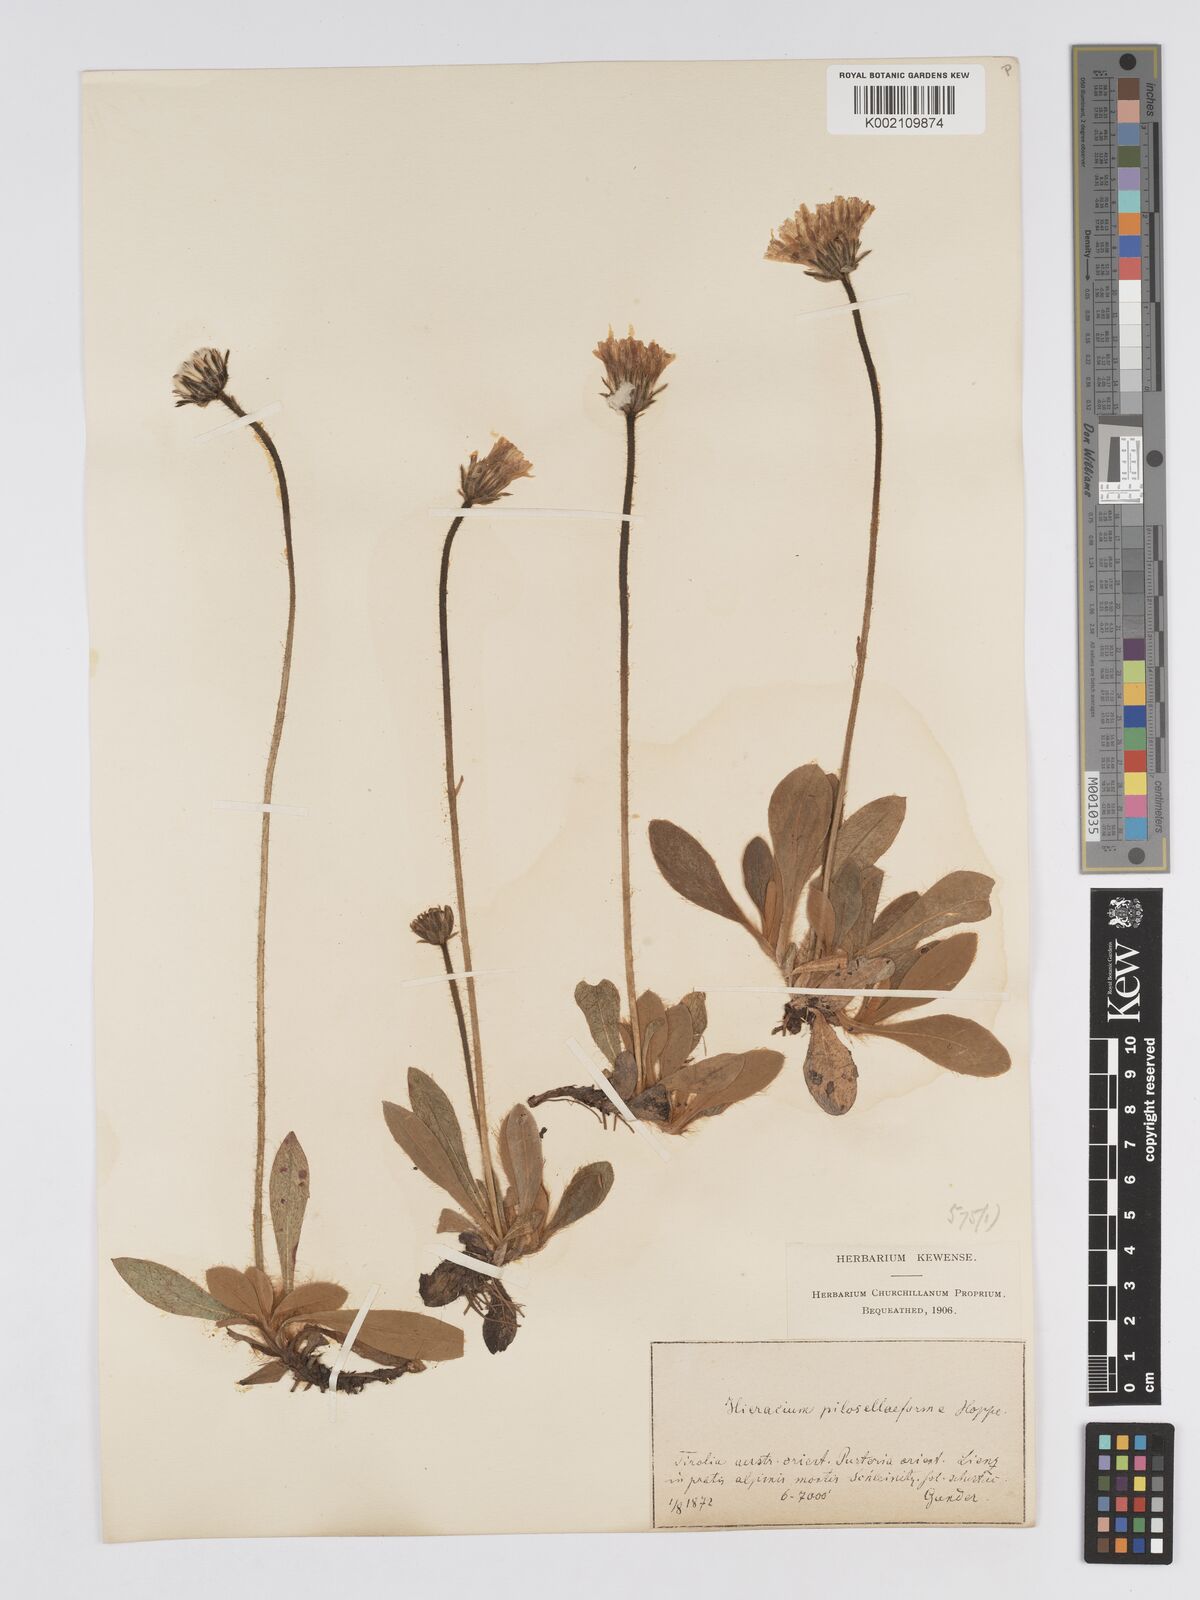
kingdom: Plantae
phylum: Tracheophyta
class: Magnoliopsida
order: Asterales
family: Asteraceae
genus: Pilosella
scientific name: Pilosella hoppeana
